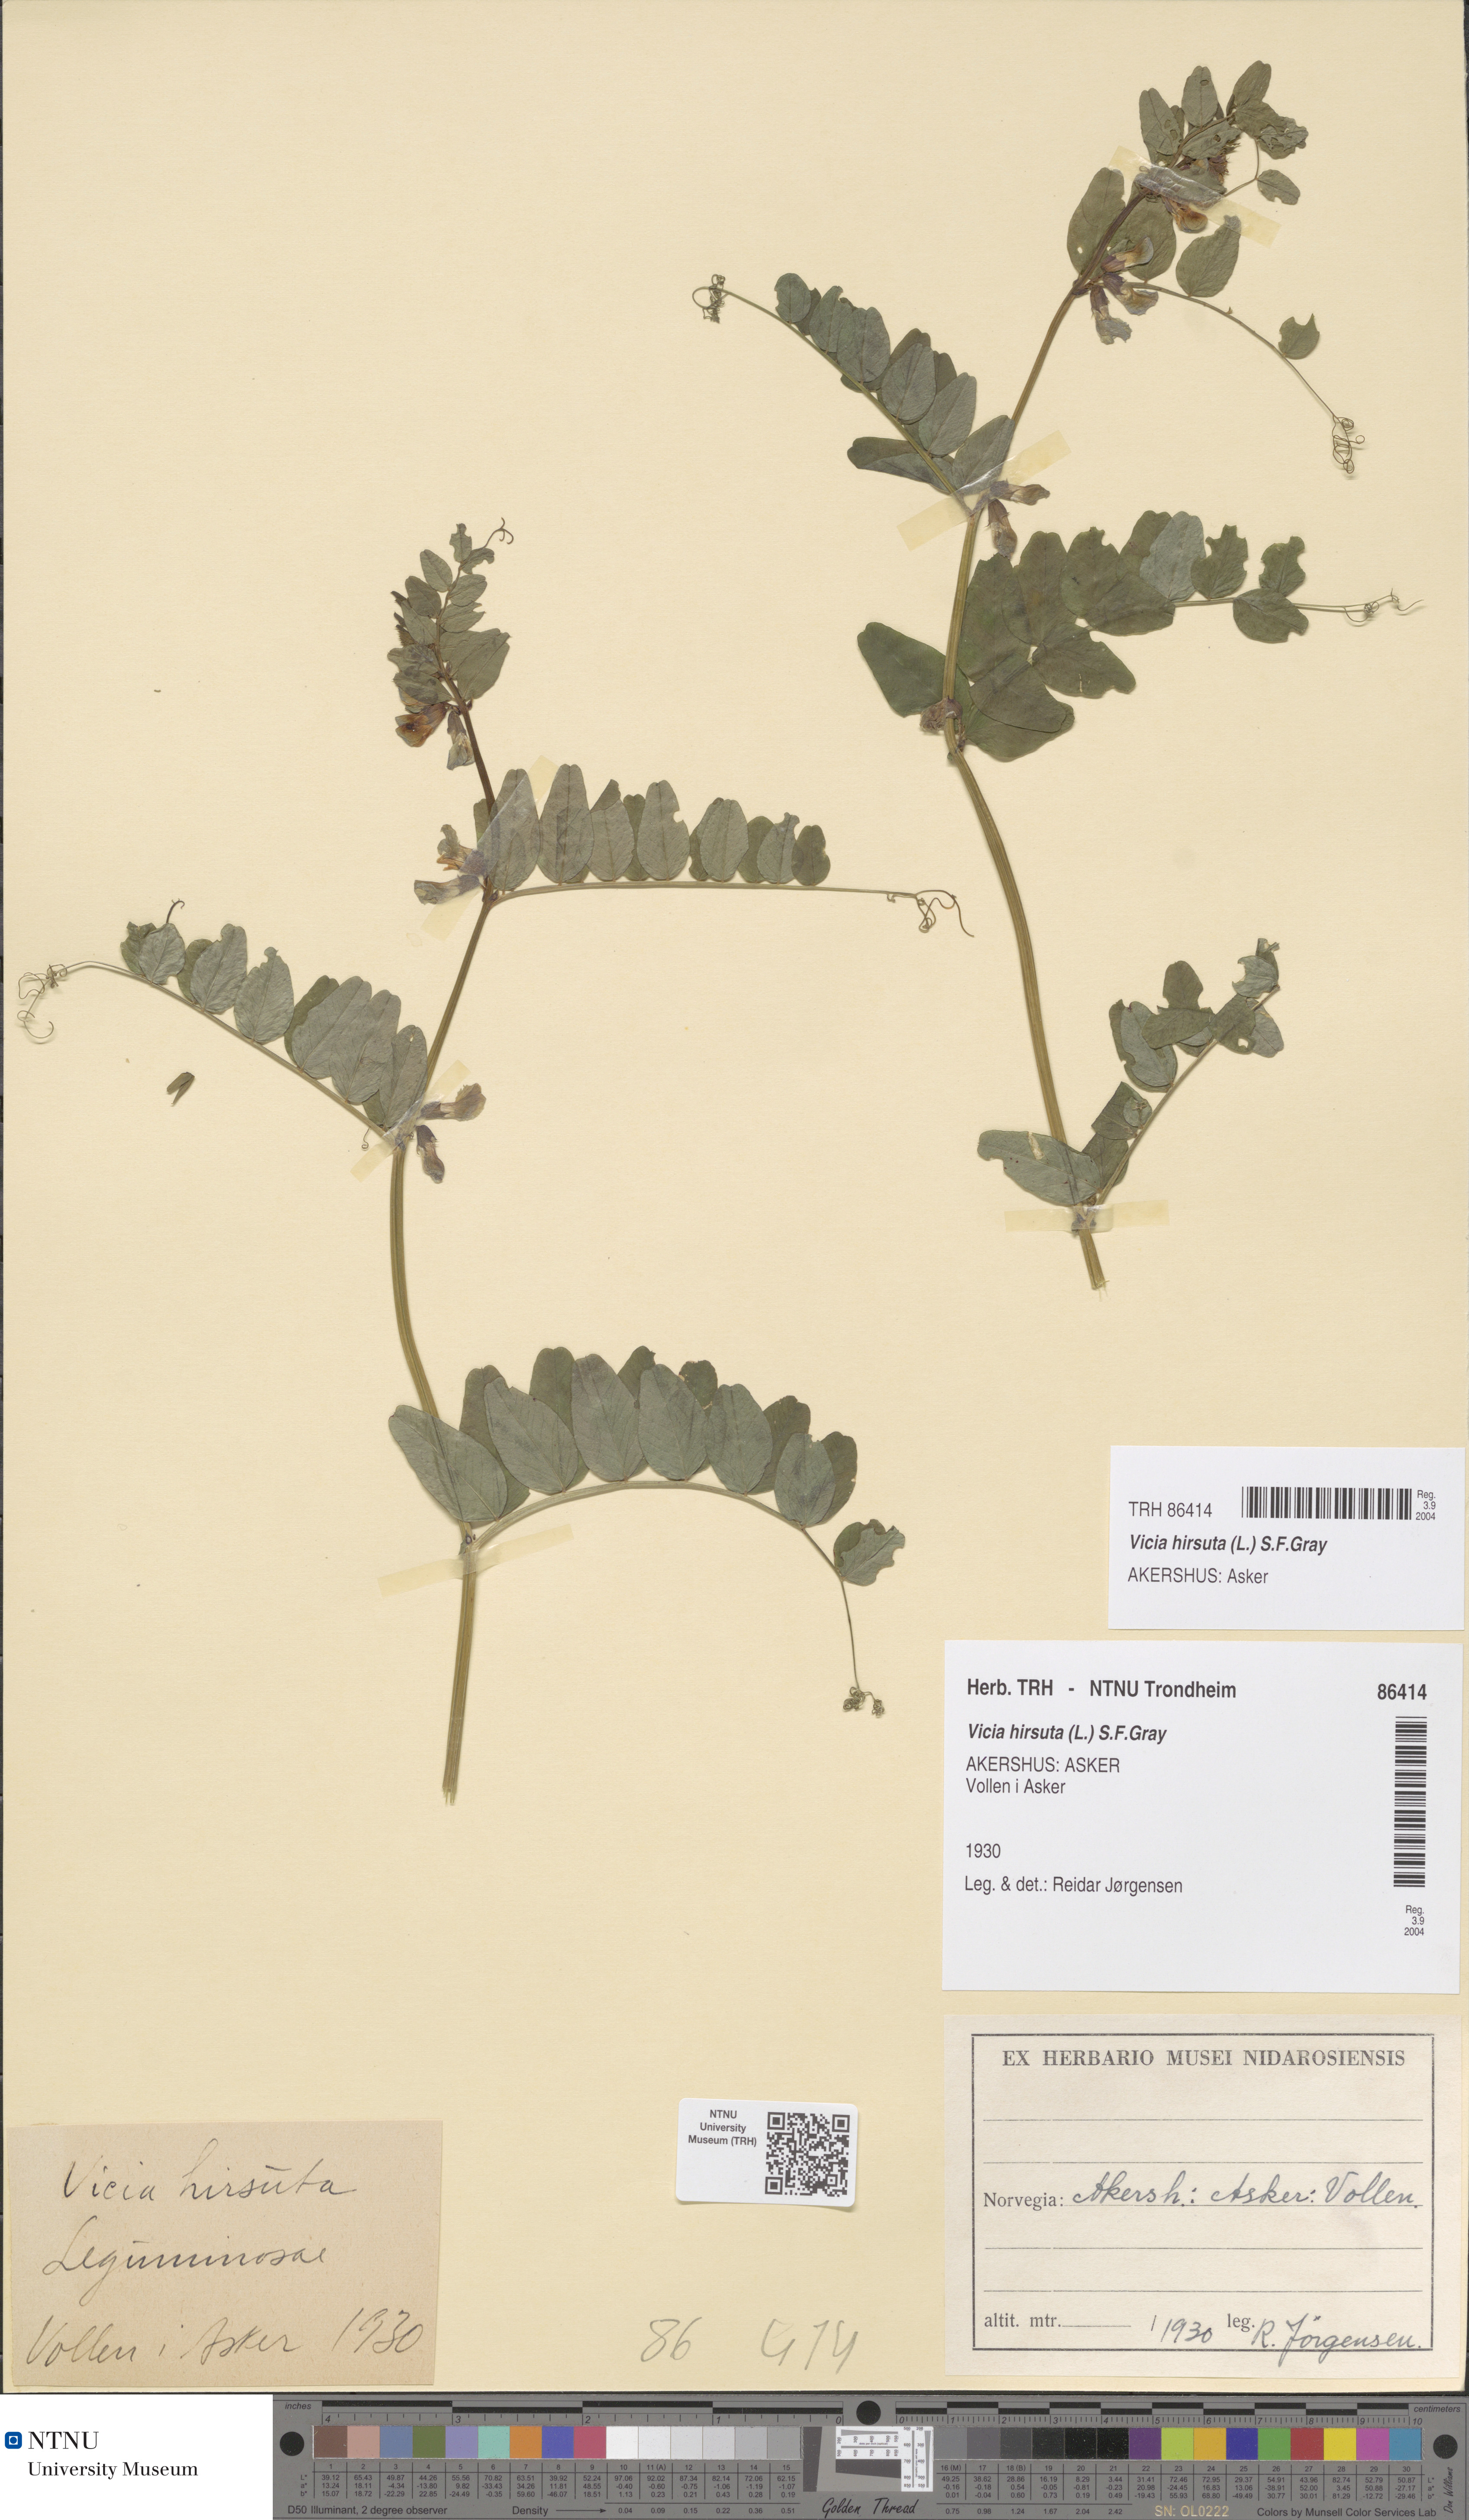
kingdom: Plantae
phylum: Tracheophyta
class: Magnoliopsida
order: Fabales
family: Fabaceae
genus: Vicia
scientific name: Vicia hirsuta
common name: Tiny vetch
